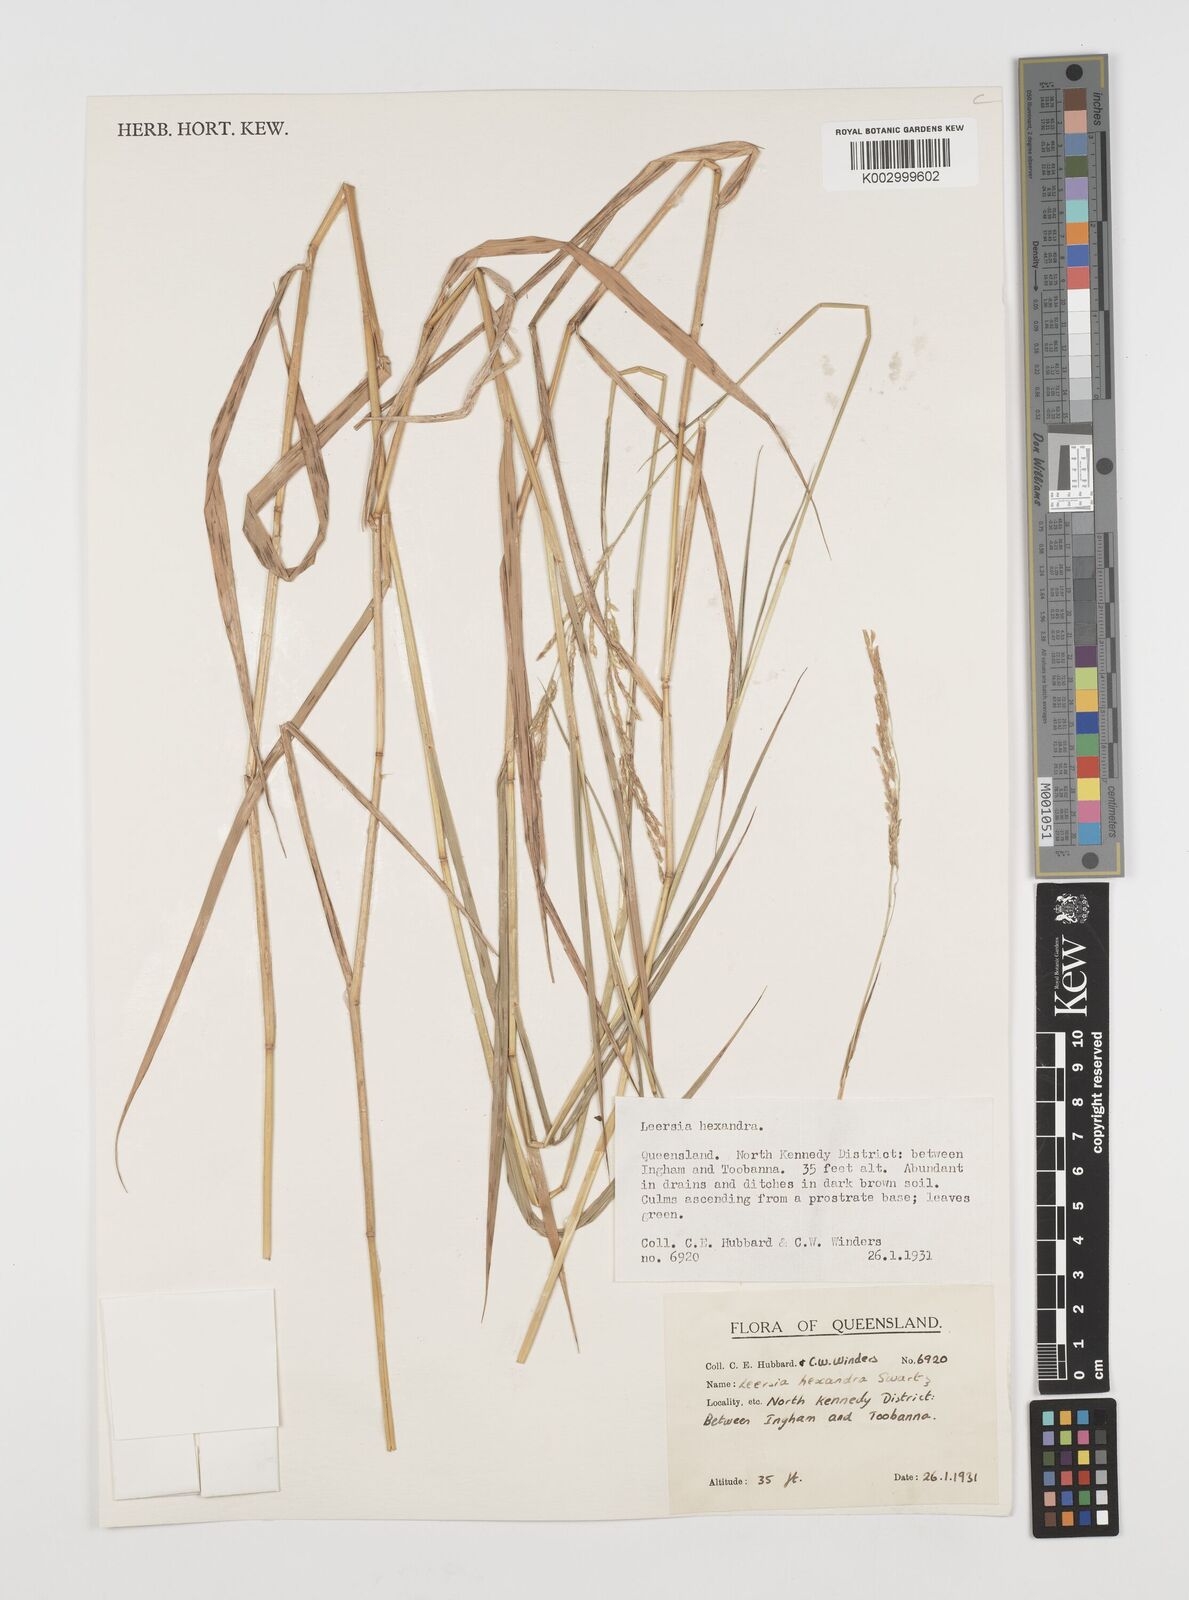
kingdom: Plantae
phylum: Tracheophyta
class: Liliopsida
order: Poales
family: Poaceae
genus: Leersia
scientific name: Leersia hexandra
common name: Southern cut grass
